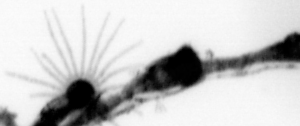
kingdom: Animalia
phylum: Cnidaria
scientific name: Cnidaria
